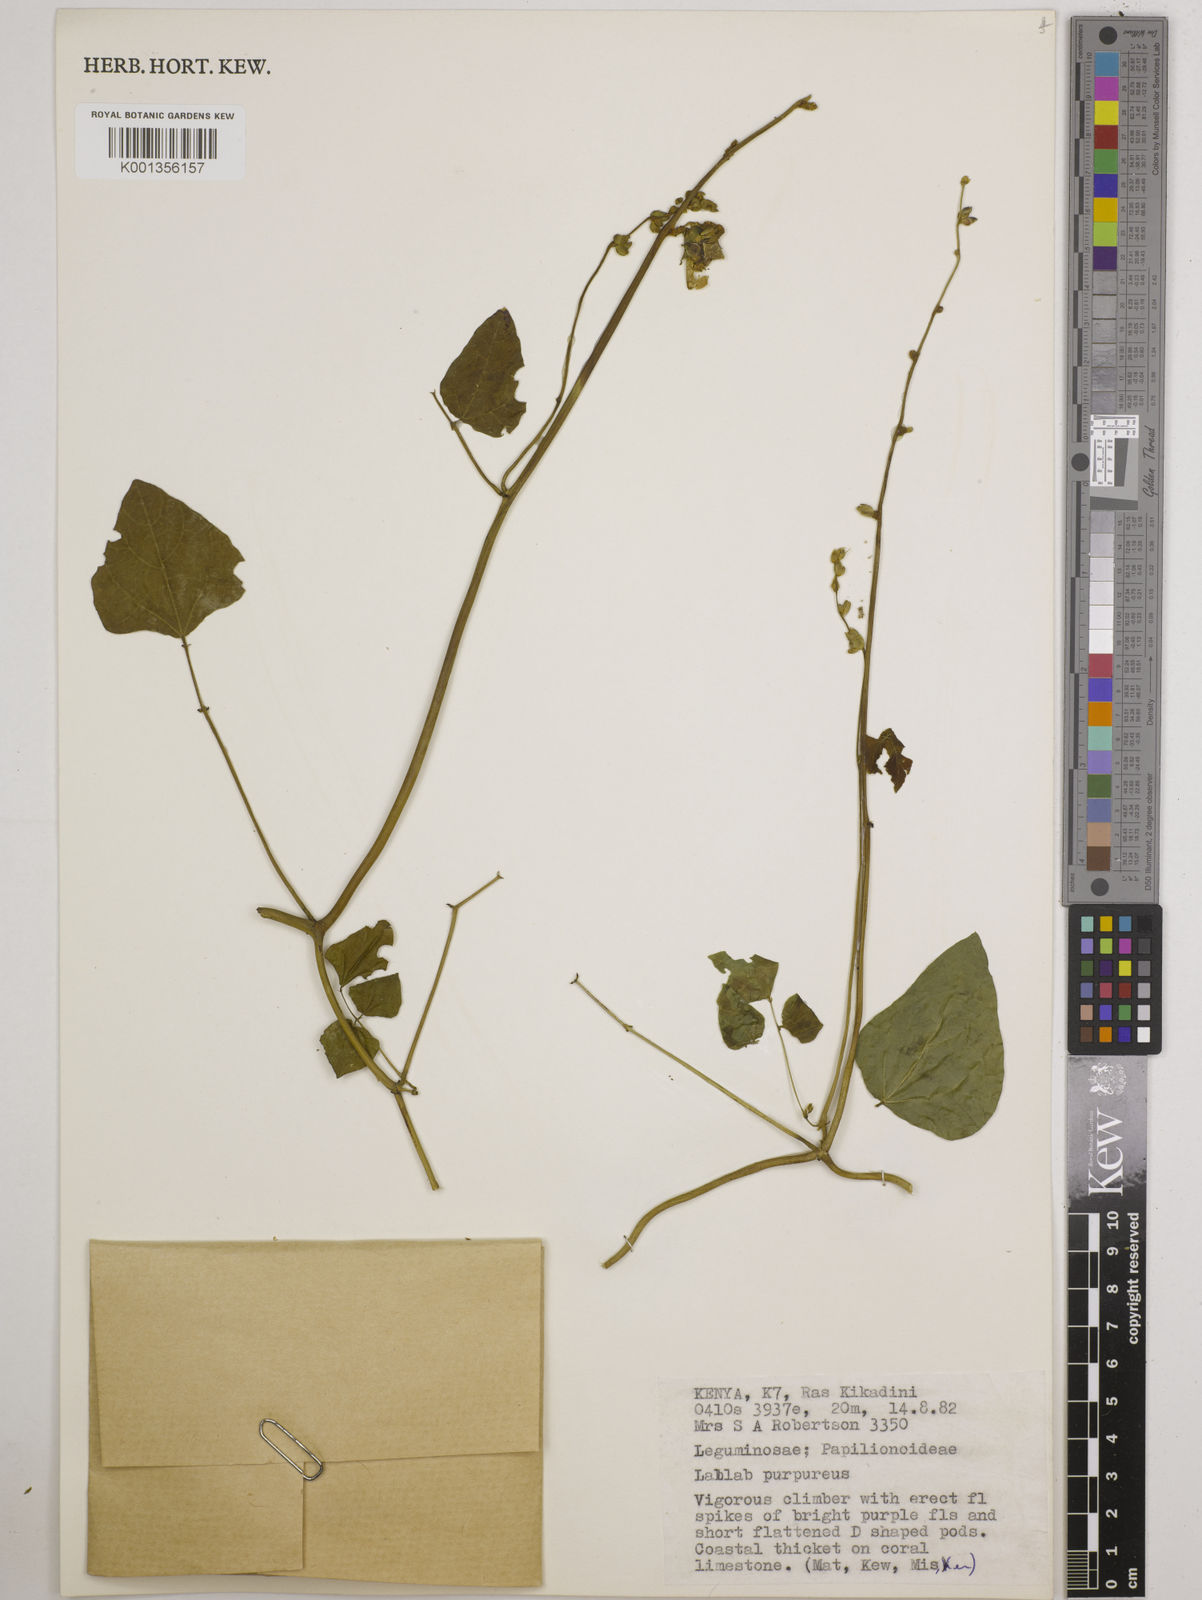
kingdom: Plantae
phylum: Tracheophyta
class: Magnoliopsida
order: Fabales
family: Fabaceae
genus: Lablab
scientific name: Lablab purpureus
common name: Lablab-bean
